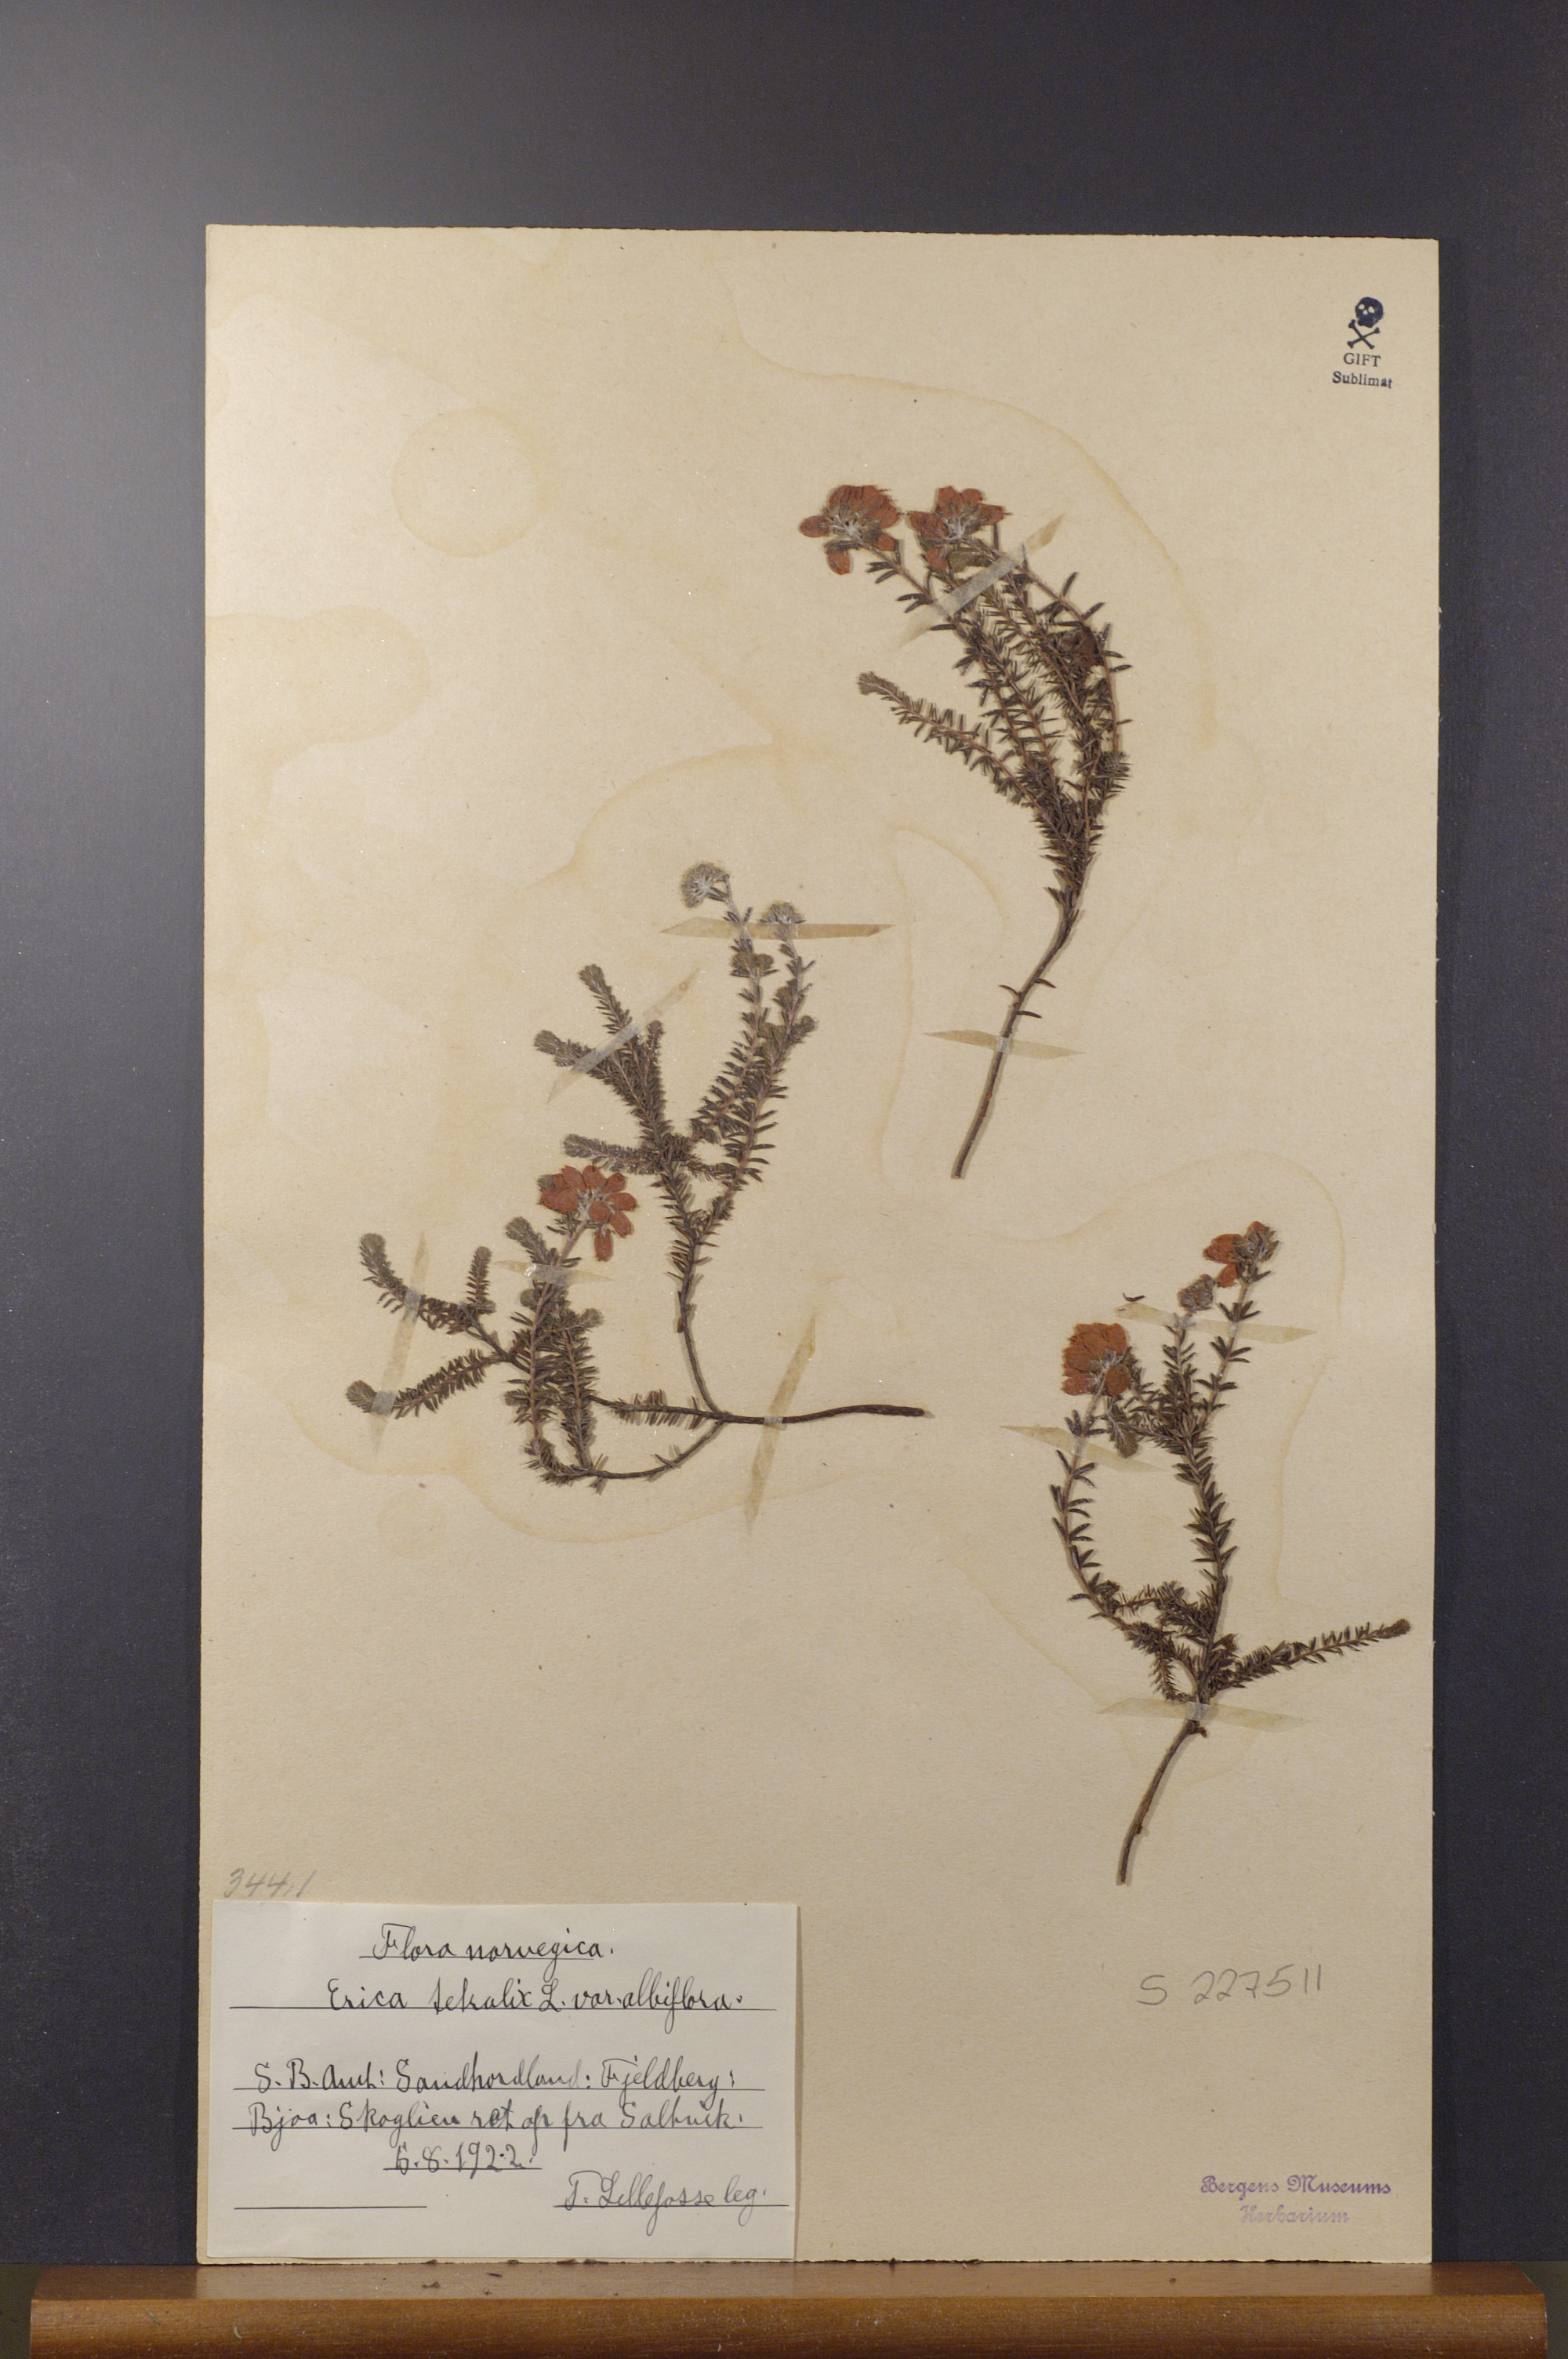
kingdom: Plantae
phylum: Tracheophyta
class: Magnoliopsida
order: Ericales
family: Ericaceae
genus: Erica
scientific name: Erica tetralix
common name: Cross-leaved heath
